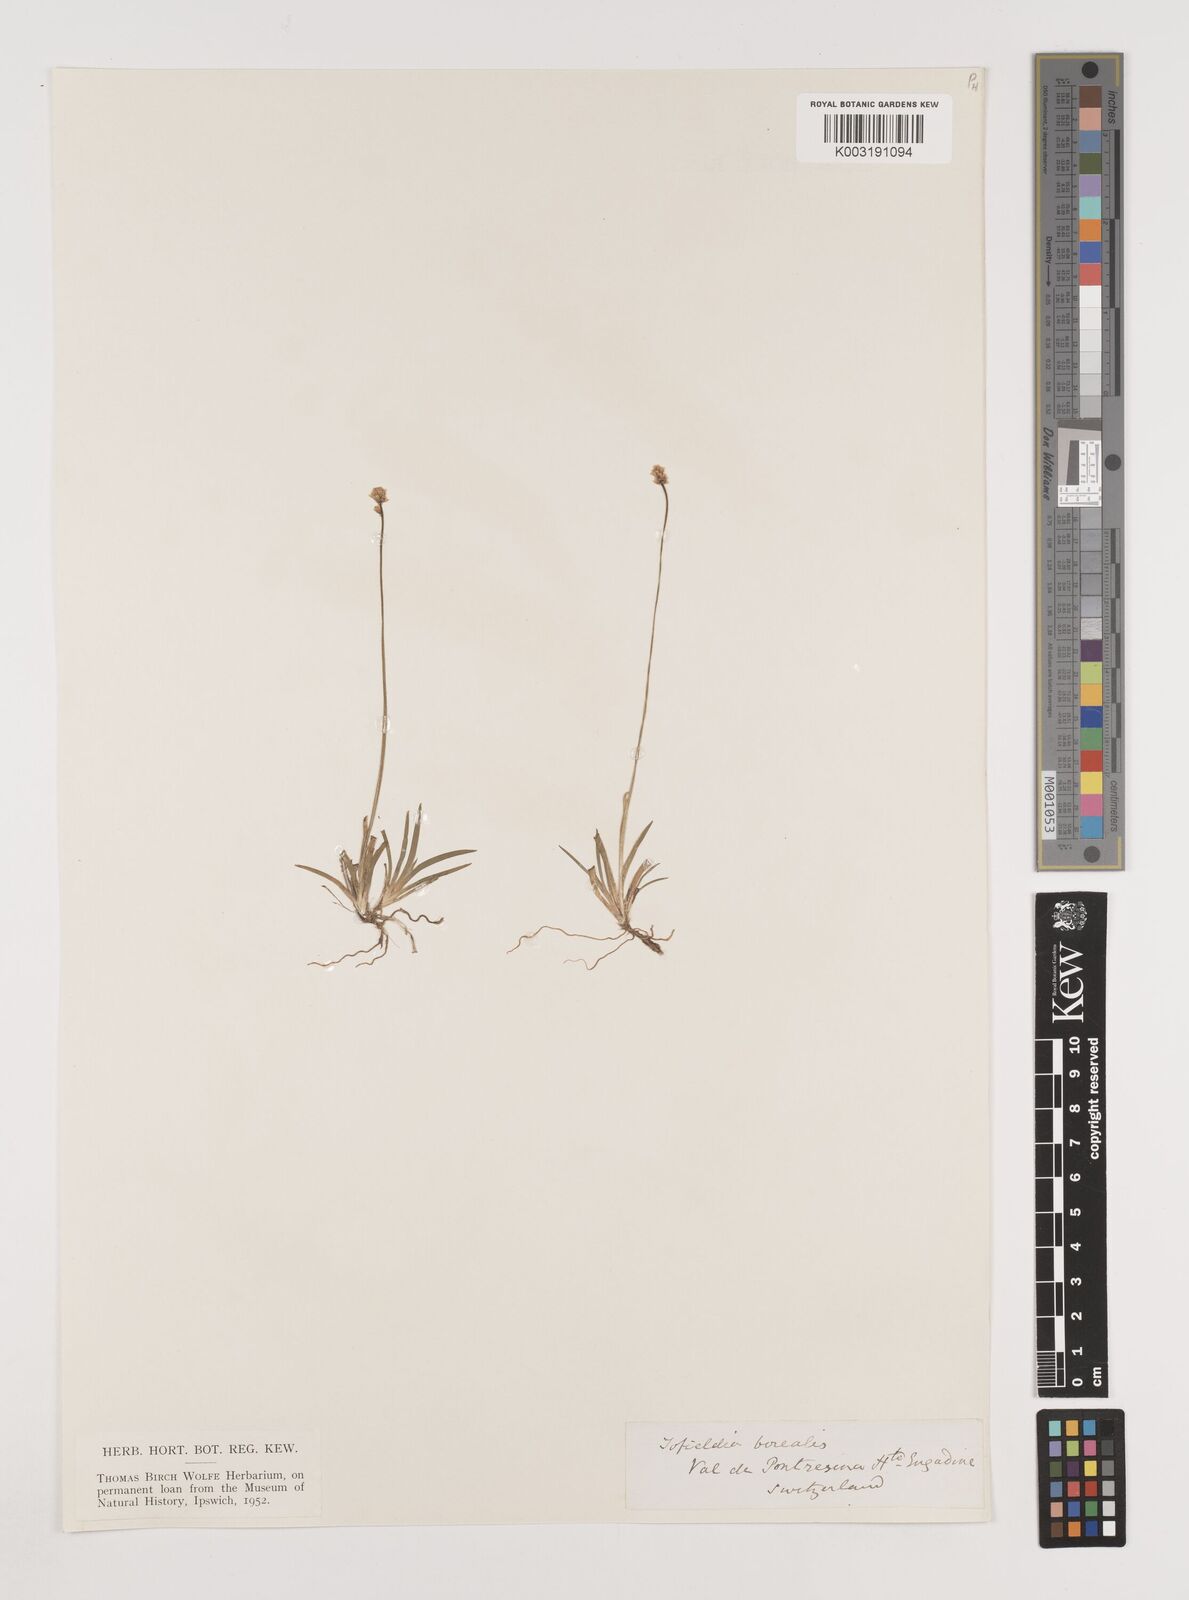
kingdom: Plantae
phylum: Tracheophyta
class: Liliopsida
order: Alismatales
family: Tofieldiaceae
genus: Tofieldia
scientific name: Tofieldia pusilla
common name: Scottish false asphodel
